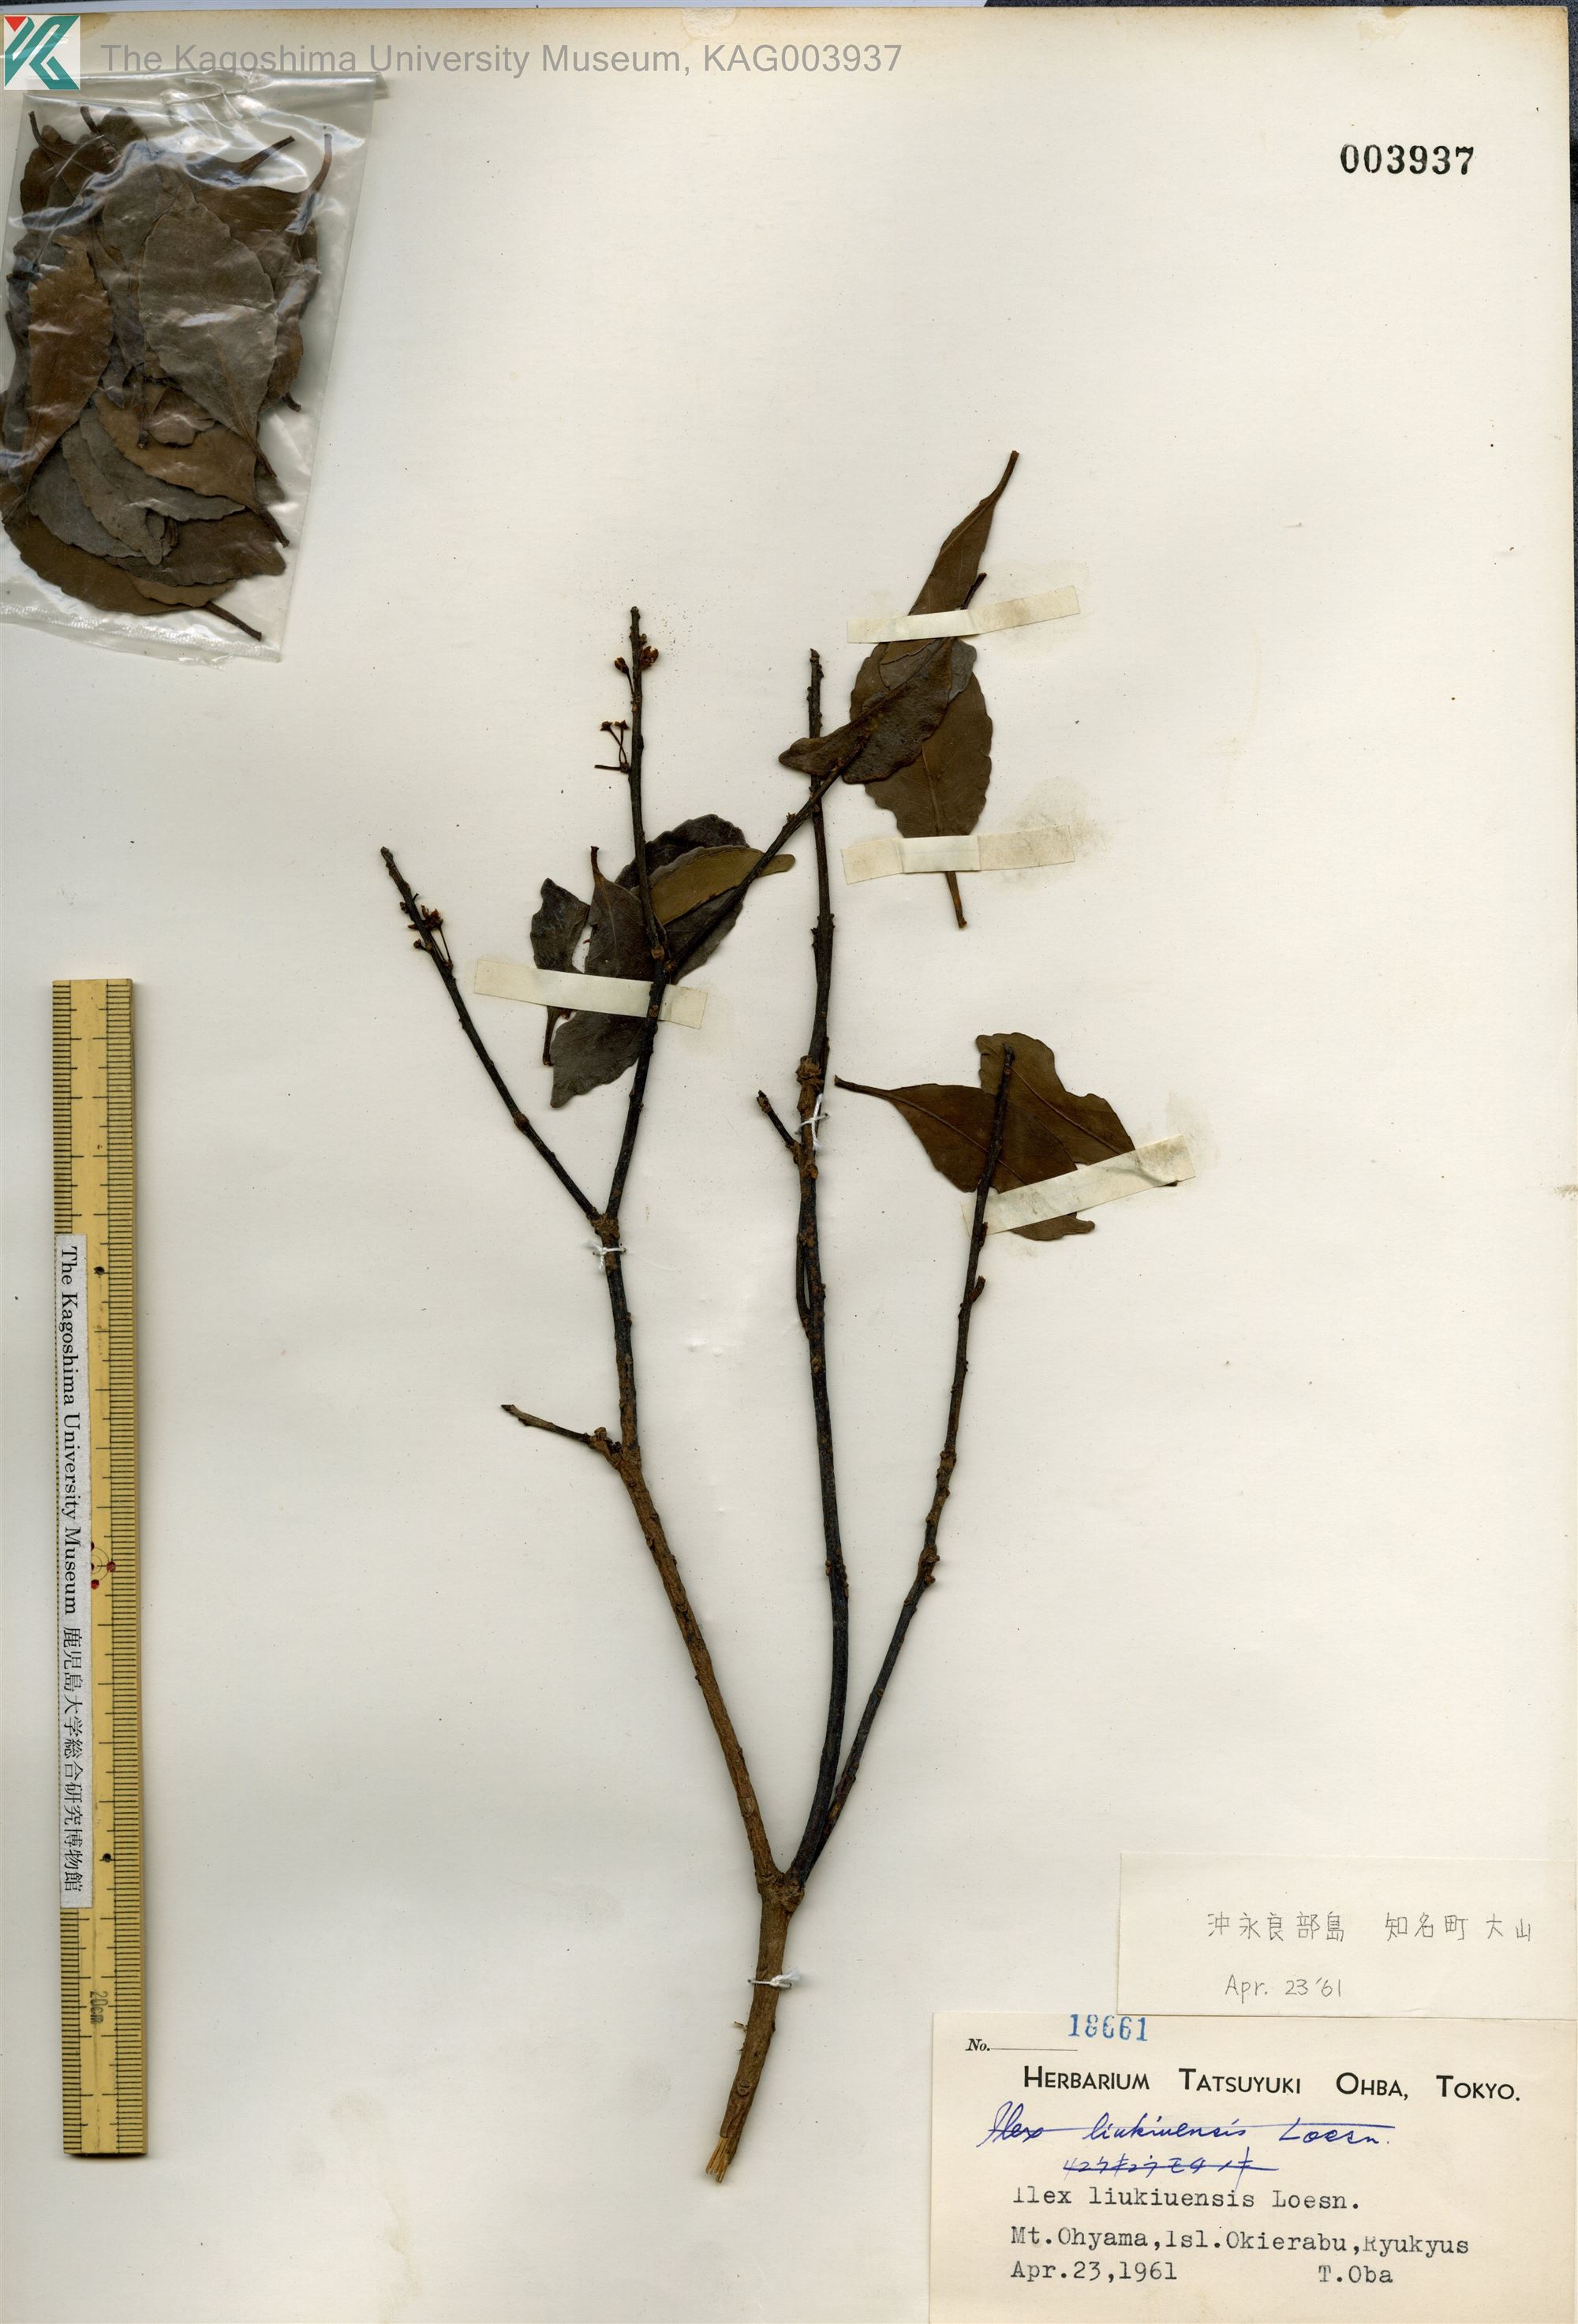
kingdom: Plantae
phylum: Tracheophyta
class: Magnoliopsida
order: Aquifoliales
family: Aquifoliaceae
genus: Ilex
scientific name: Ilex liukiuensis
